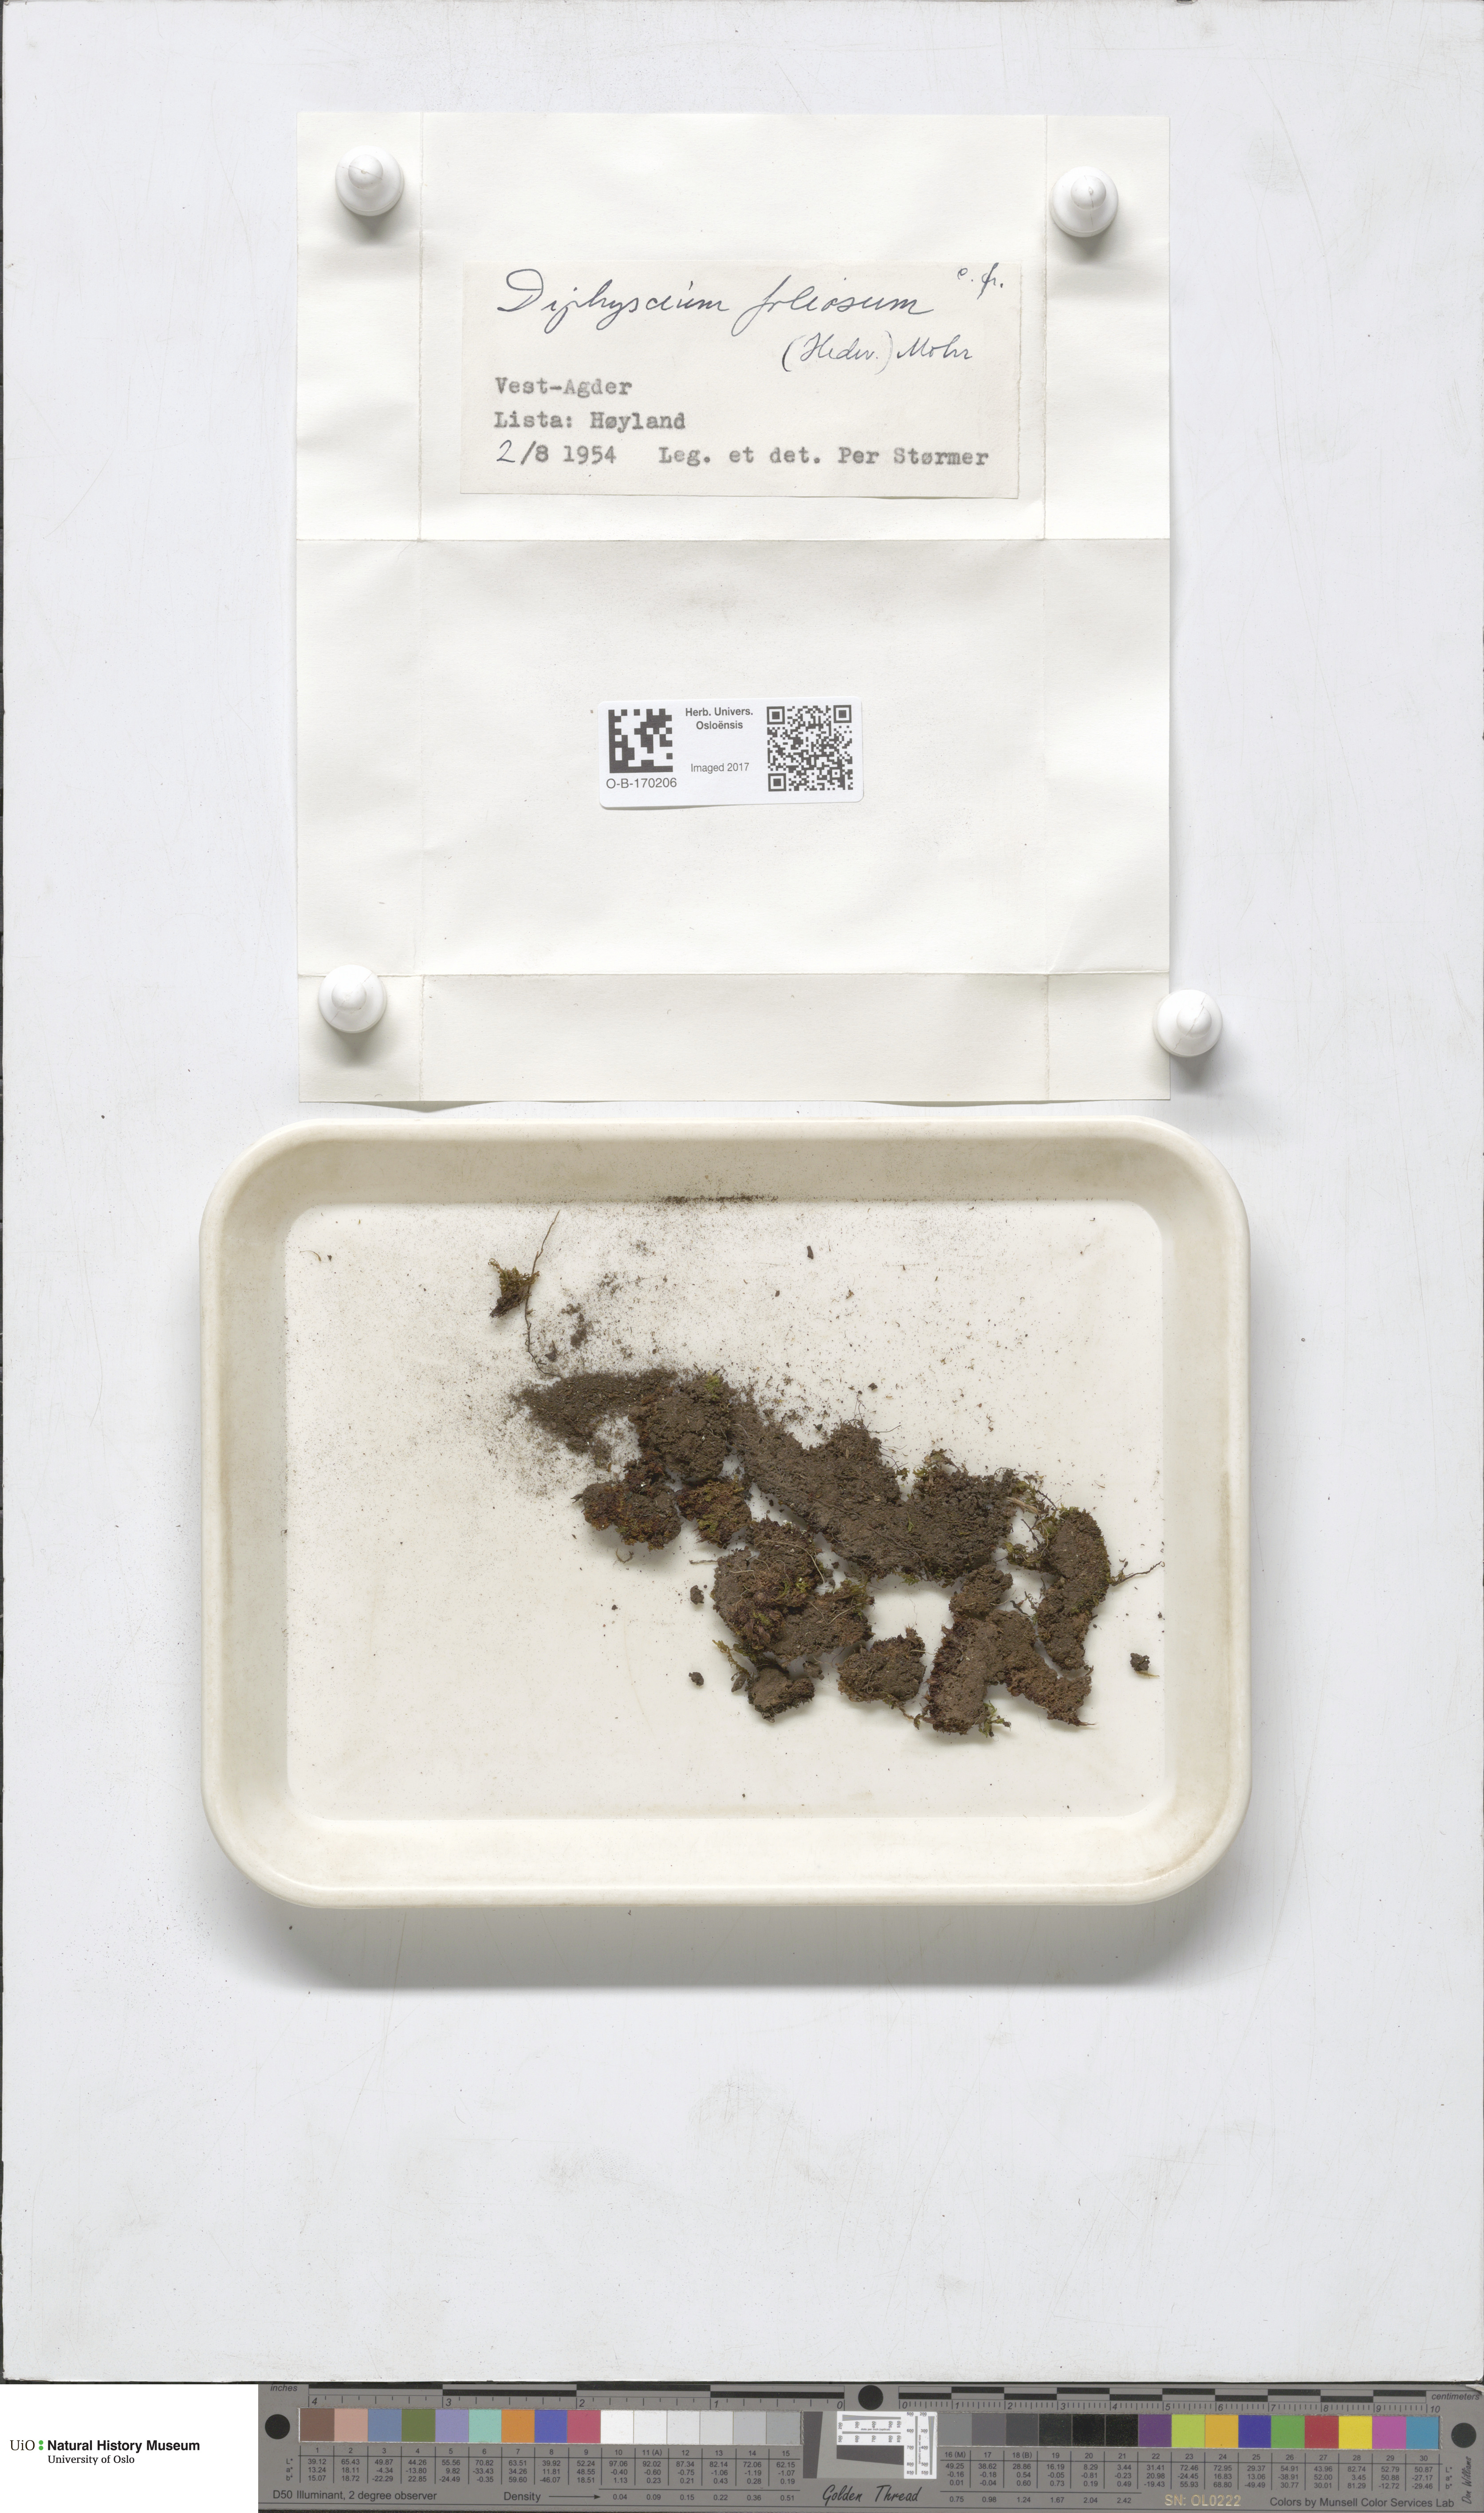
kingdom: Plantae
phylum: Bryophyta
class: Bryopsida
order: Diphysciales
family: Diphysciaceae
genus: Diphyscium
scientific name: Diphyscium foliosum
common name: Nut moss
